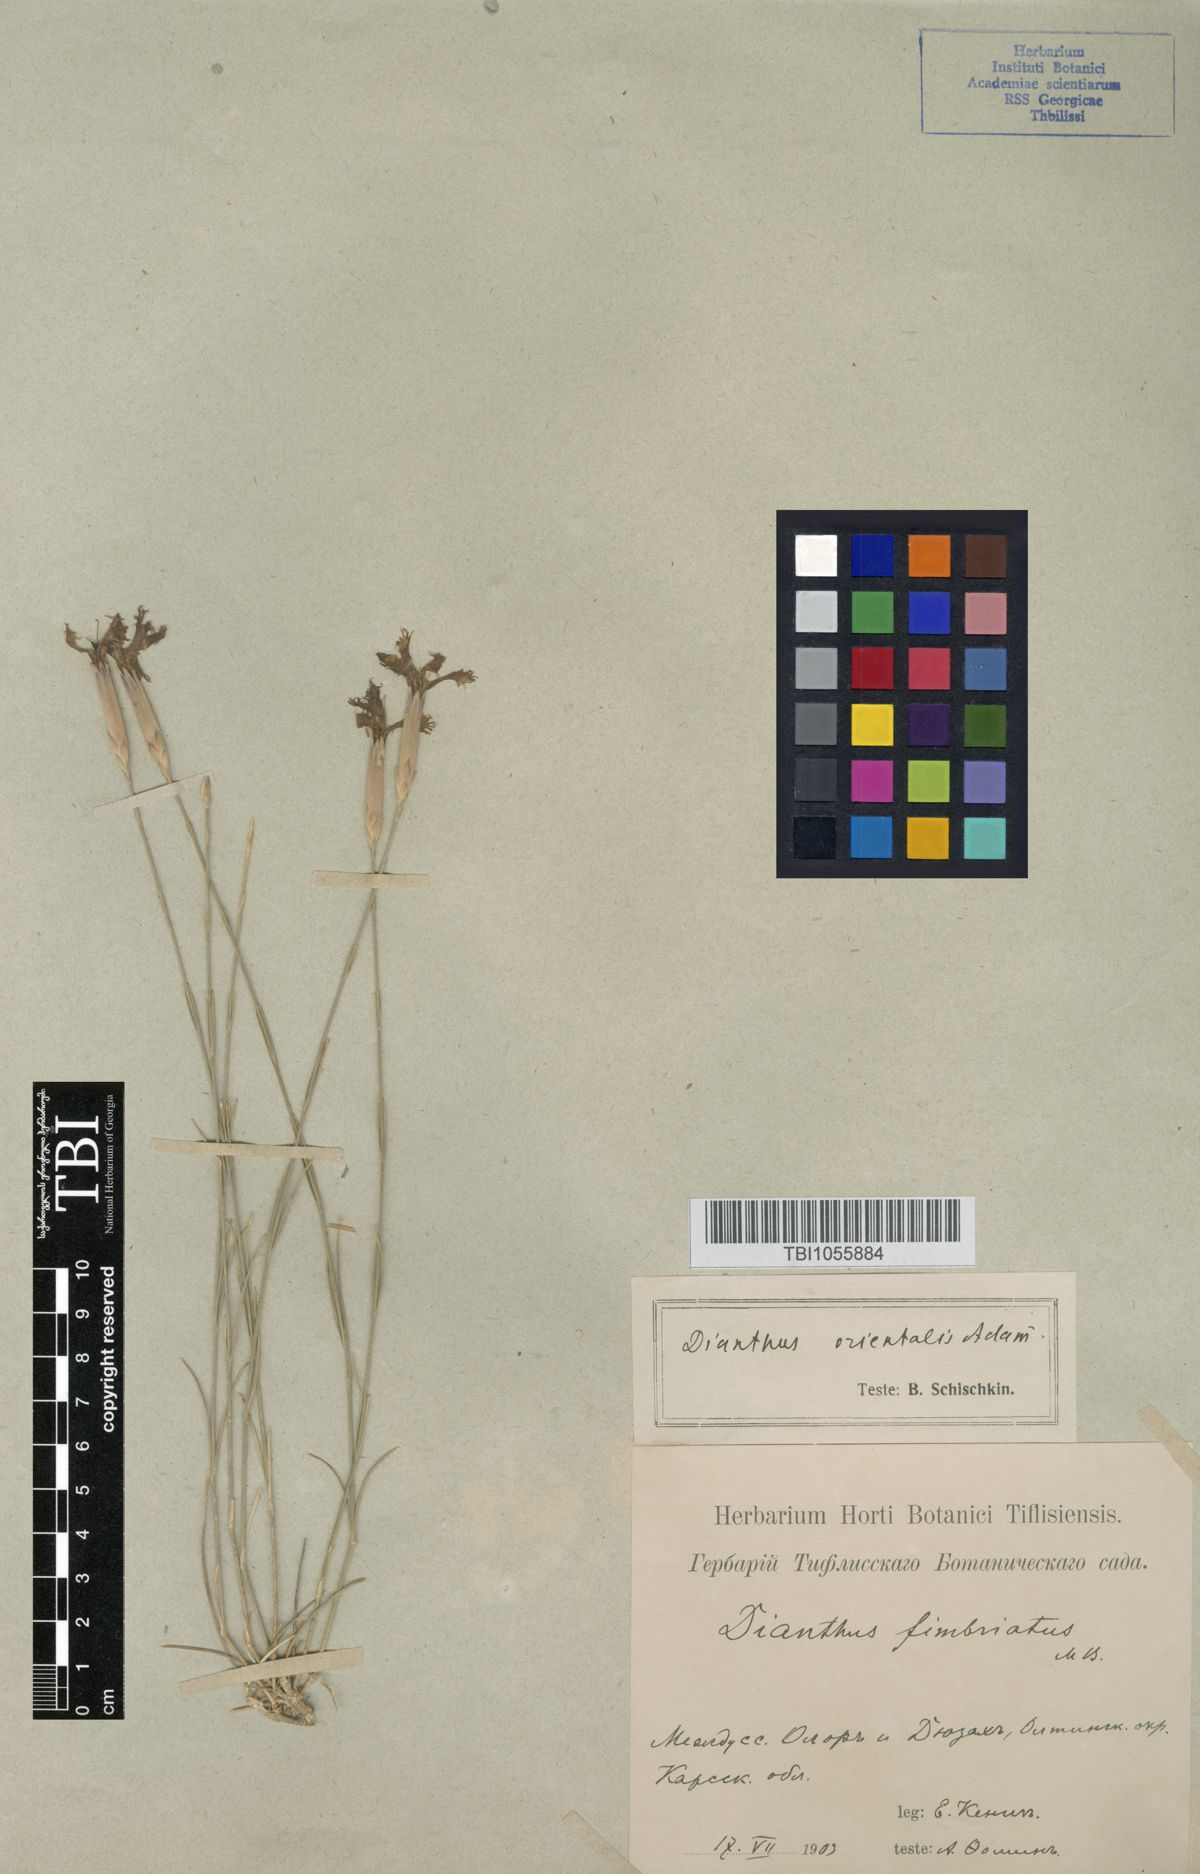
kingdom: Plantae
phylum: Tracheophyta
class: Magnoliopsida
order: Caryophyllales
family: Caryophyllaceae
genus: Dianthus
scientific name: Dianthus orientalis
